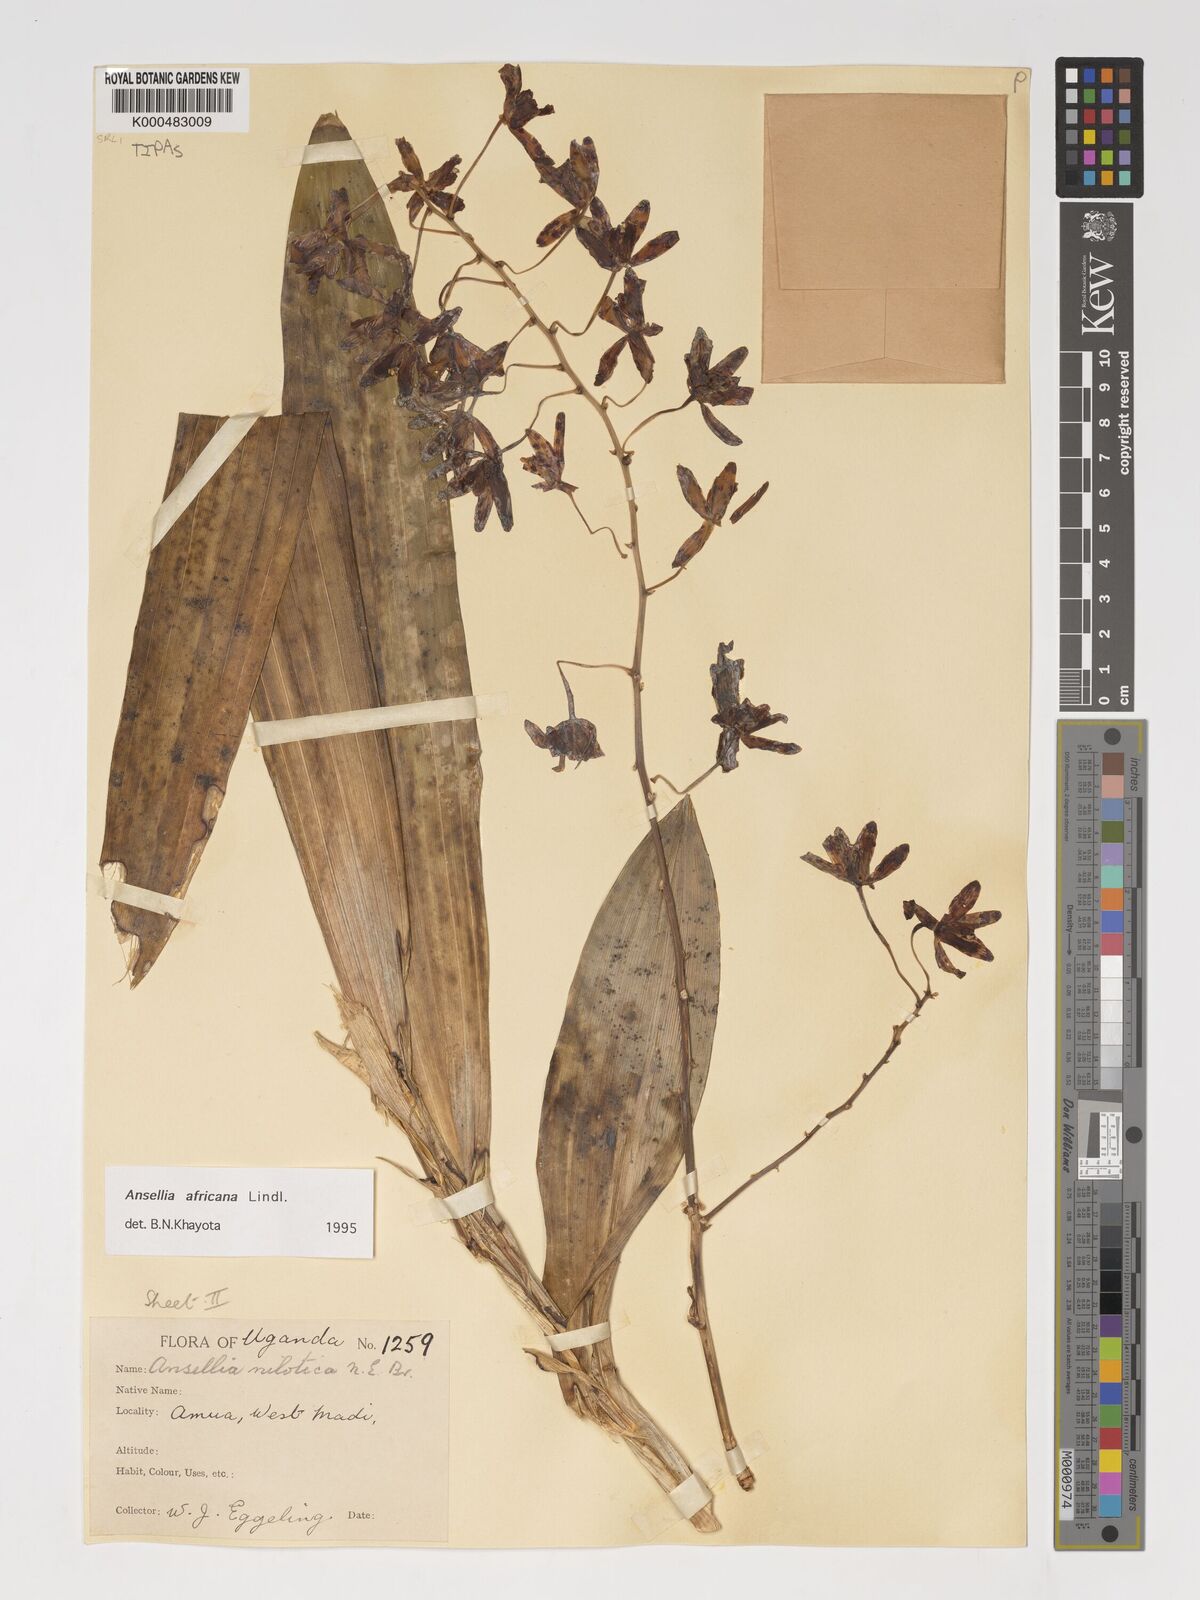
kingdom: Plantae
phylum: Tracheophyta
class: Liliopsida
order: Asparagales
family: Orchidaceae
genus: Ansellia
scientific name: Ansellia africana
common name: African ansellia
